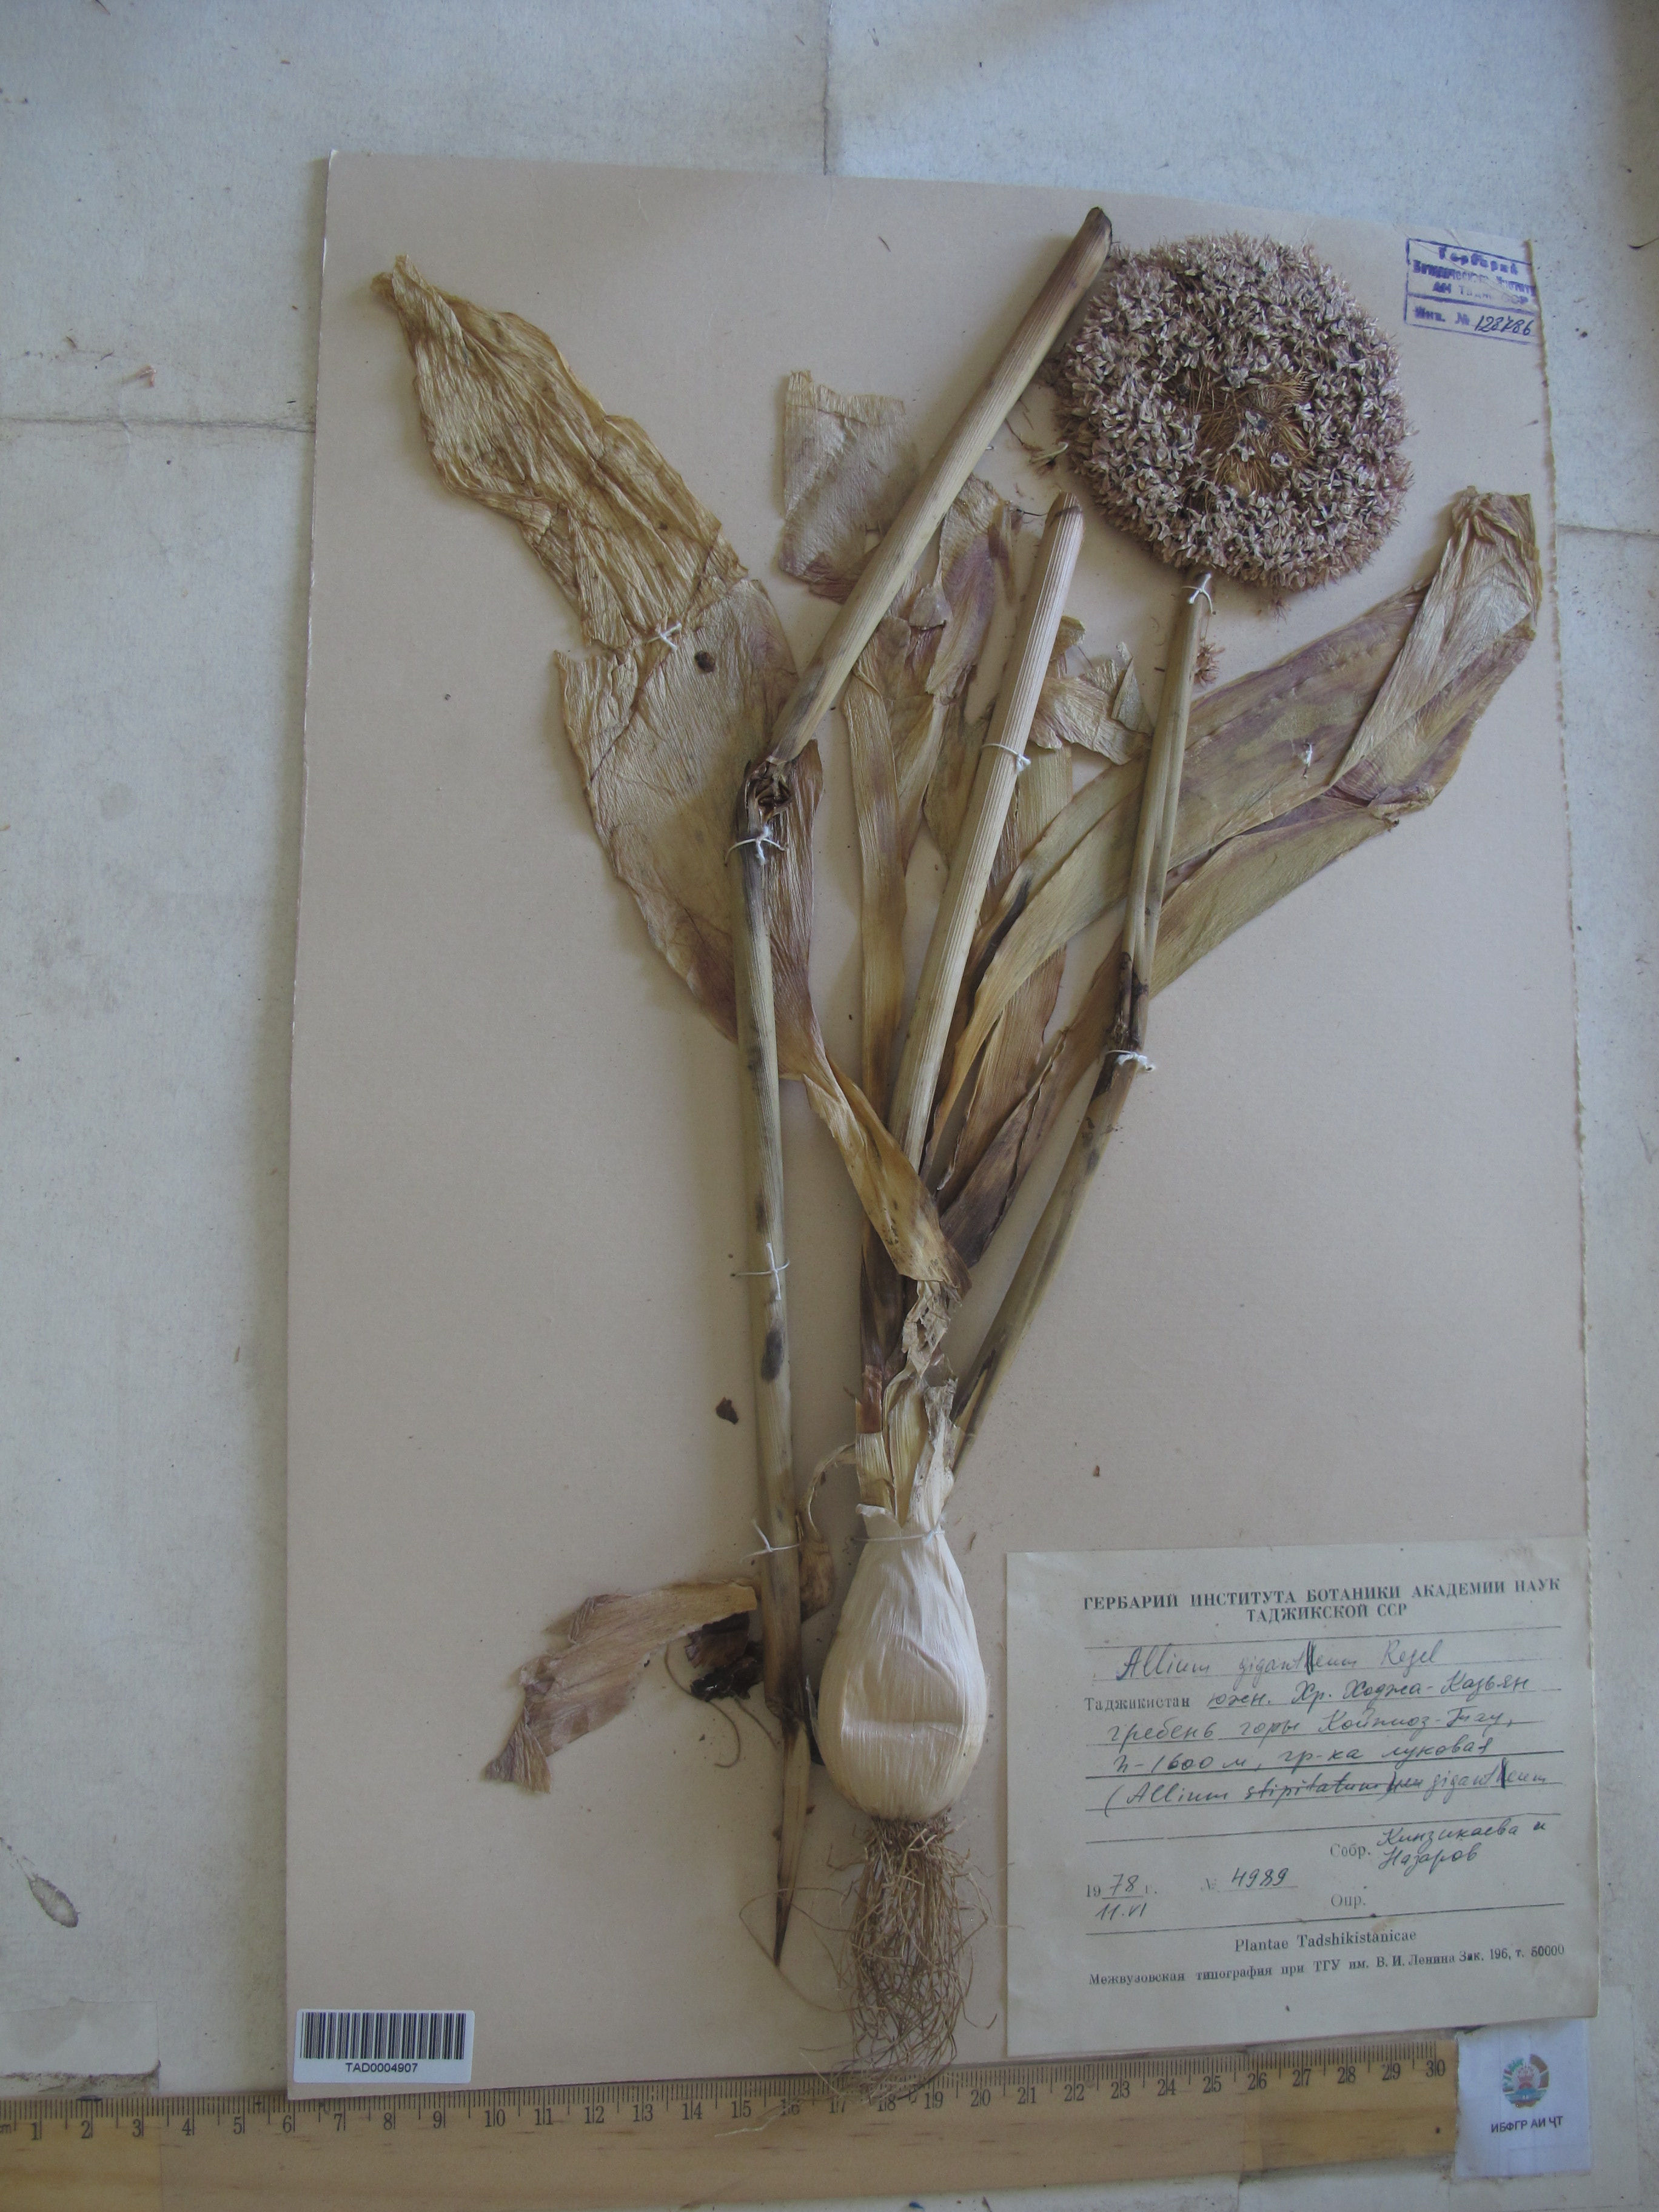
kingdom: Plantae
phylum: Tracheophyta
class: Liliopsida
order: Asparagales
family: Amaryllidaceae
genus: Allium
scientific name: Allium giganteum
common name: Giant onion
